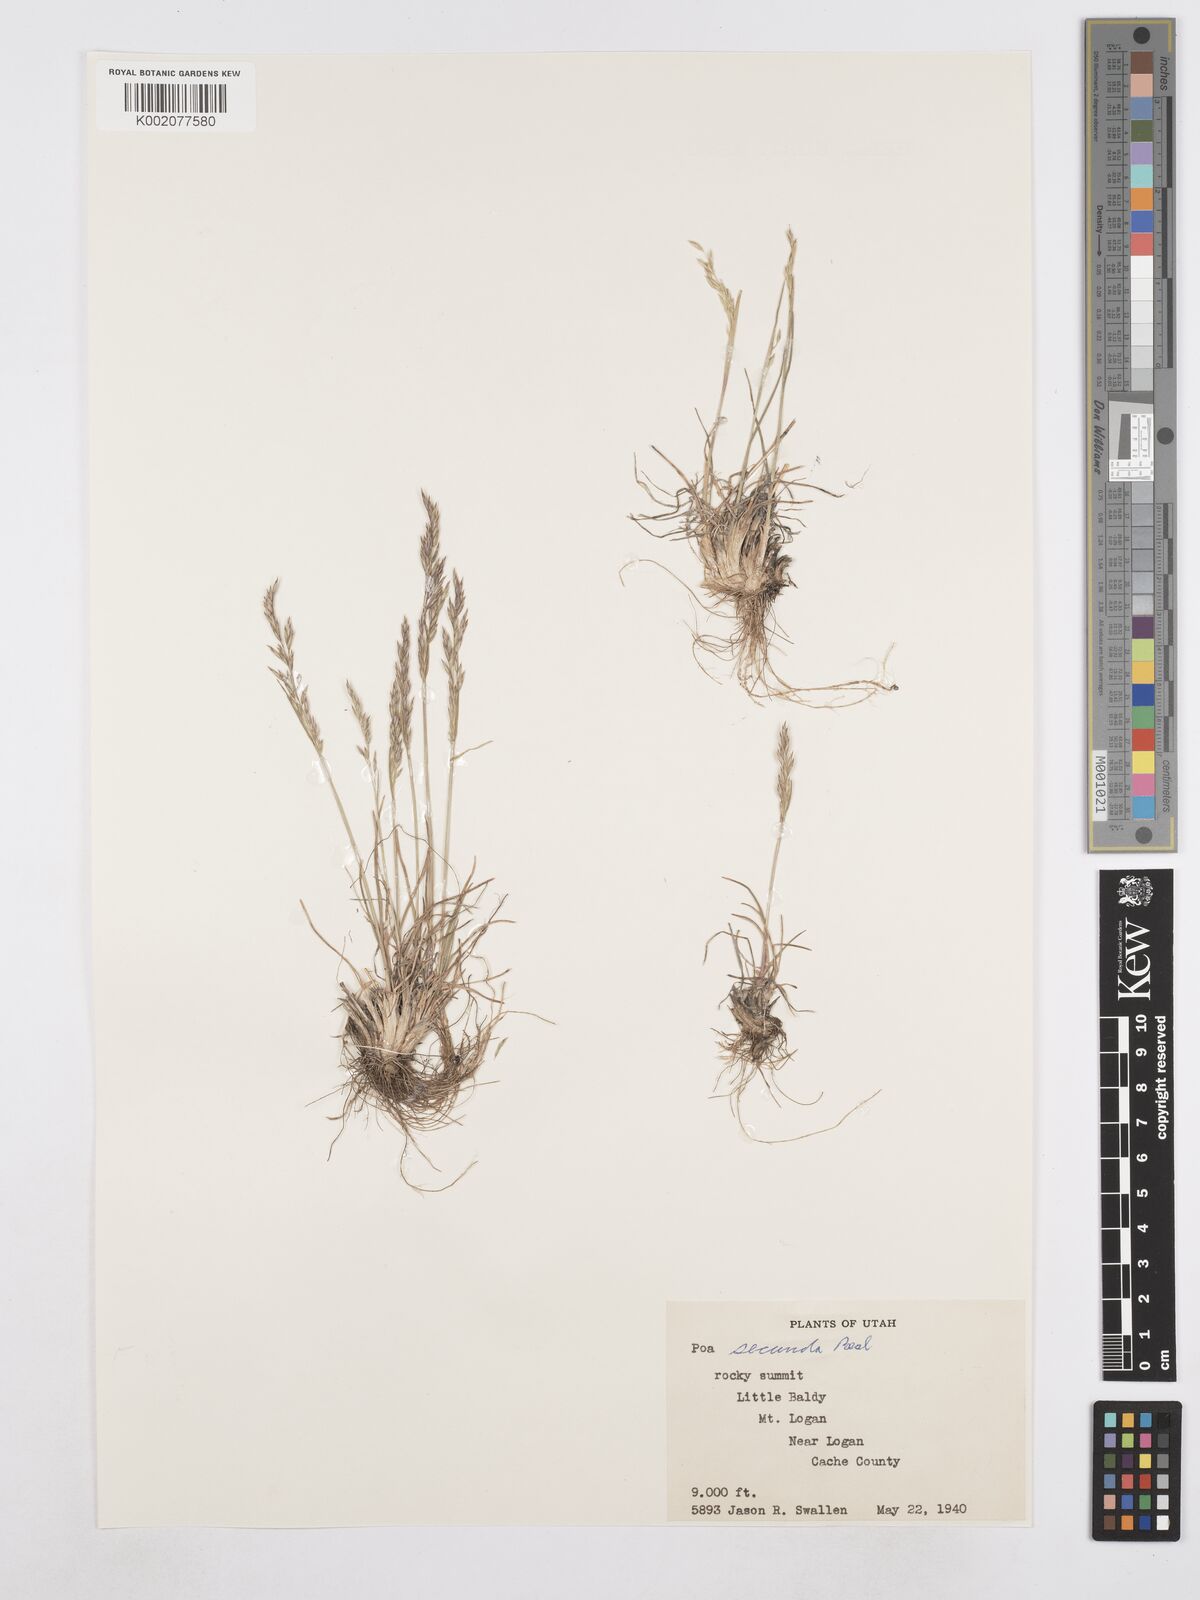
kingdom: Plantae
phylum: Tracheophyta
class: Liliopsida
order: Poales
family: Poaceae
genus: Poa
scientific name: Poa secunda
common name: Sandberg bluegrass
